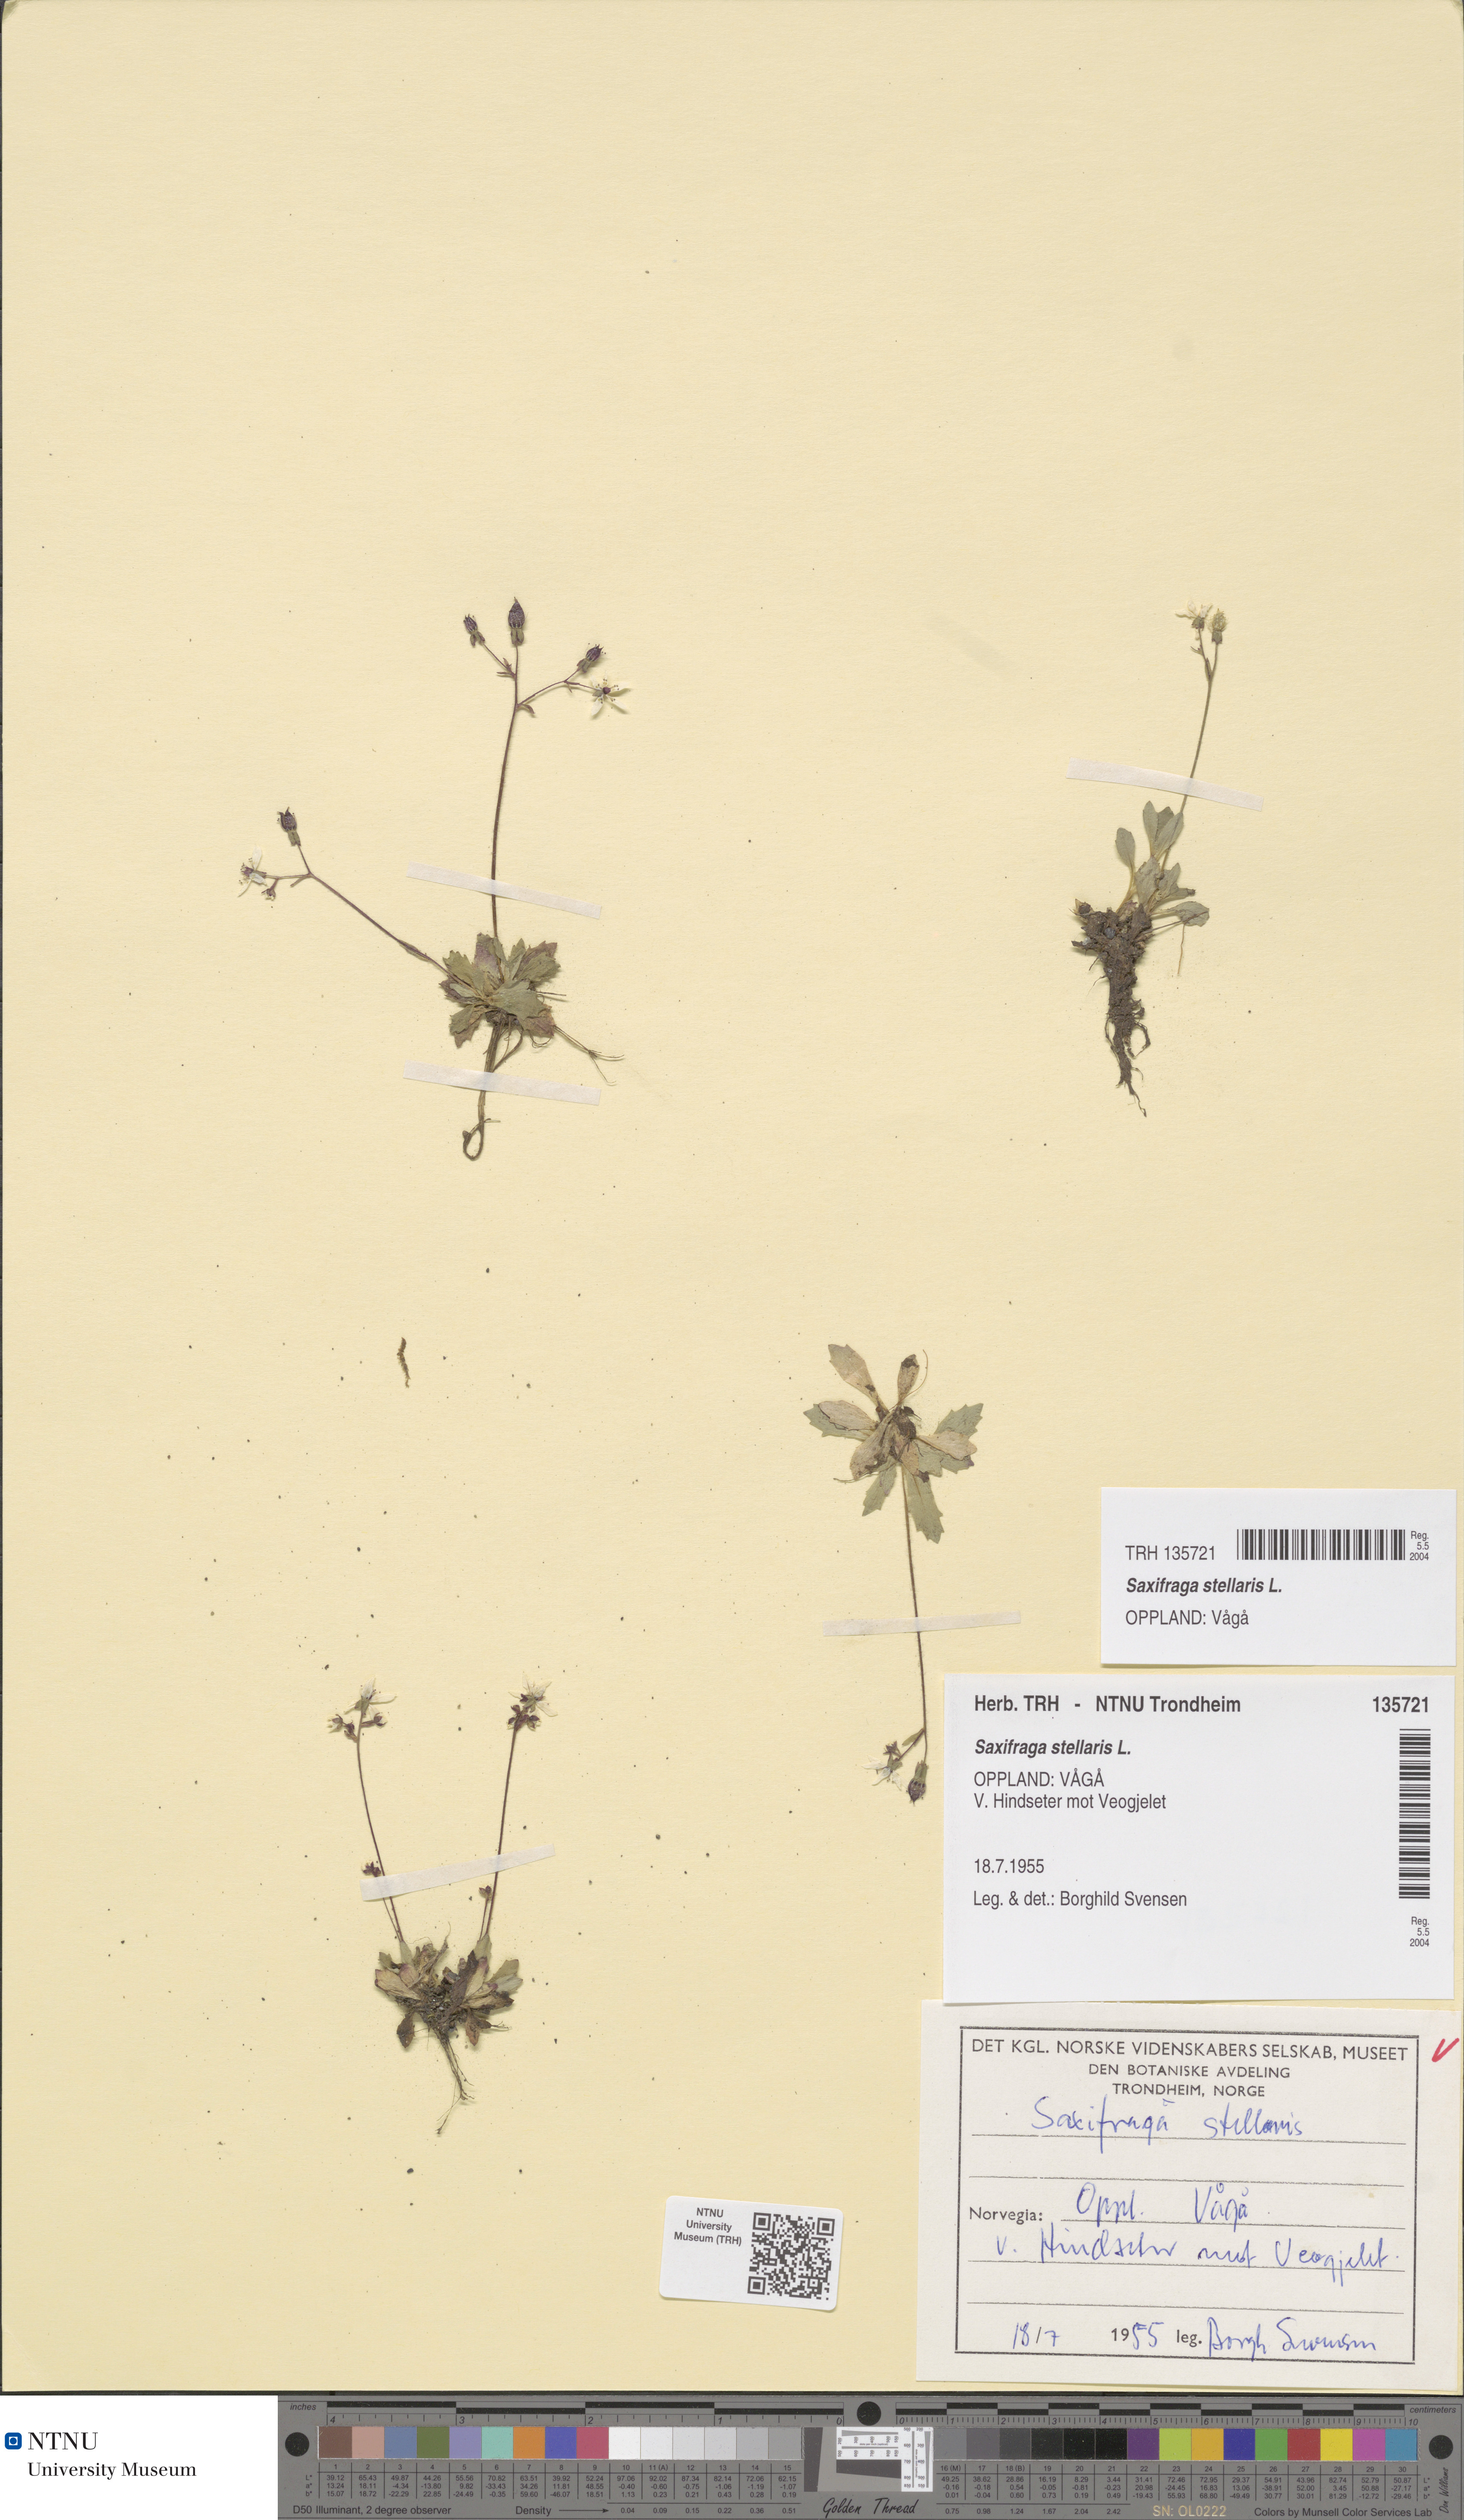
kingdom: Plantae
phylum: Tracheophyta
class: Magnoliopsida
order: Saxifragales
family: Saxifragaceae
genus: Micranthes
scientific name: Micranthes stellaris
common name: Starry saxifrage
